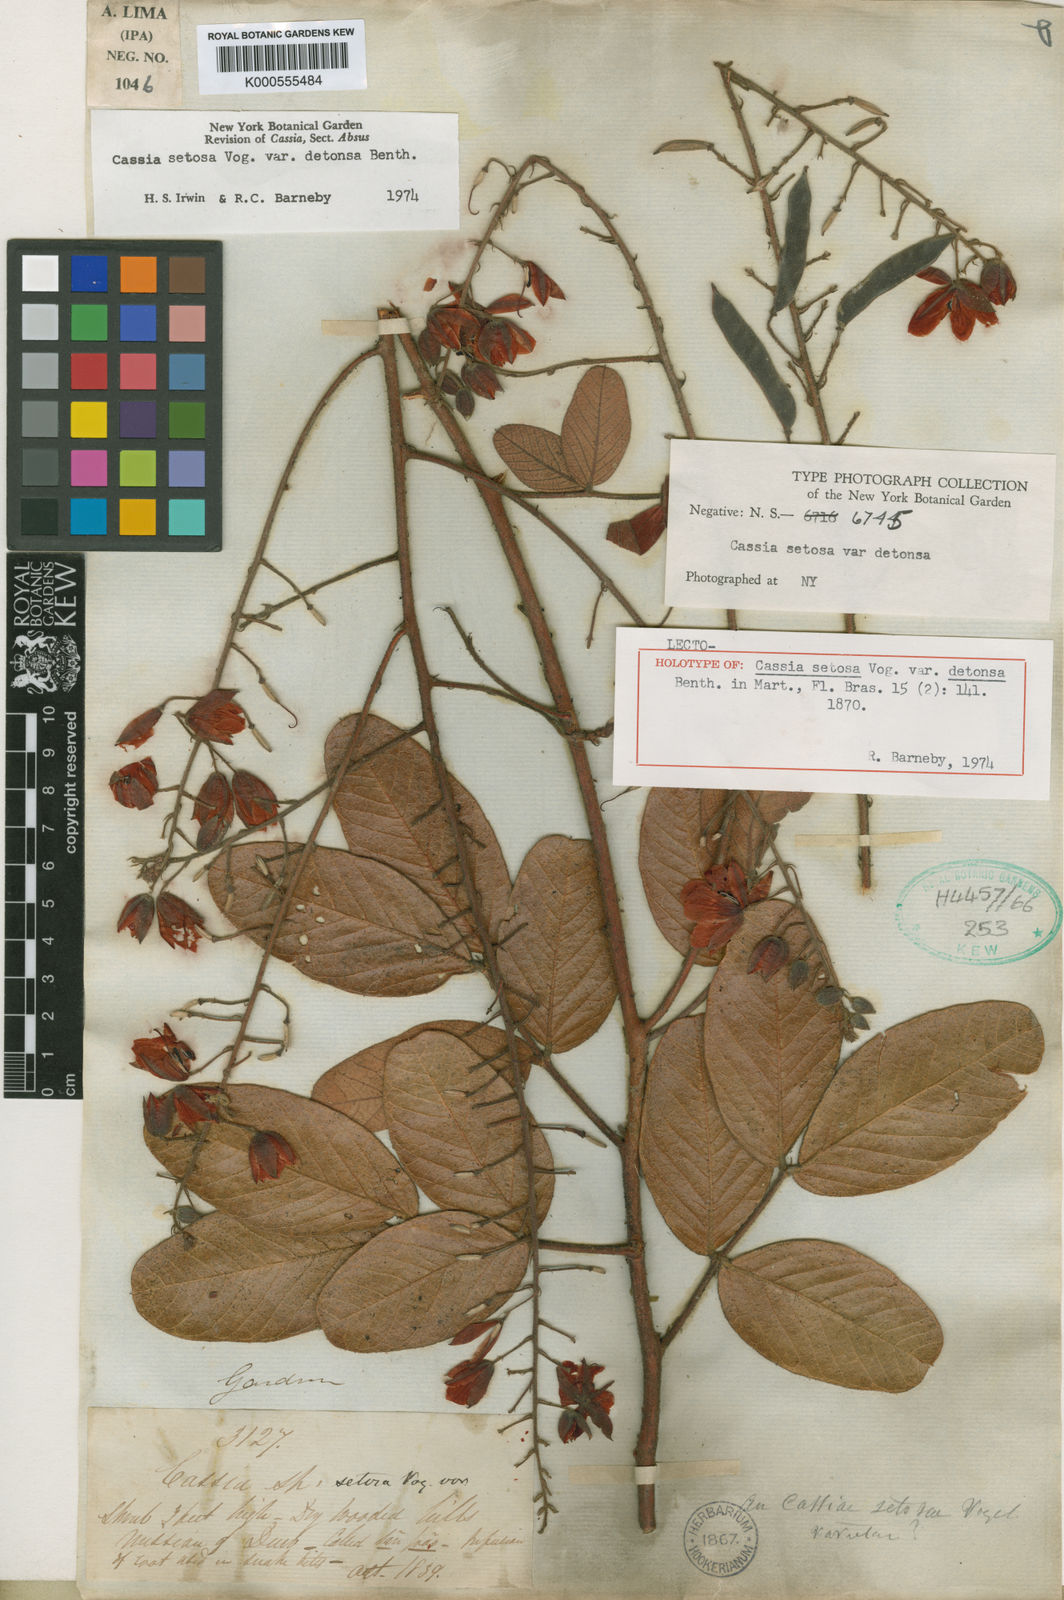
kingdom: Plantae
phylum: Tracheophyta
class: Magnoliopsida
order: Fabales
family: Fabaceae
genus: Chamaecrista
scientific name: Chamaecrista setosa
